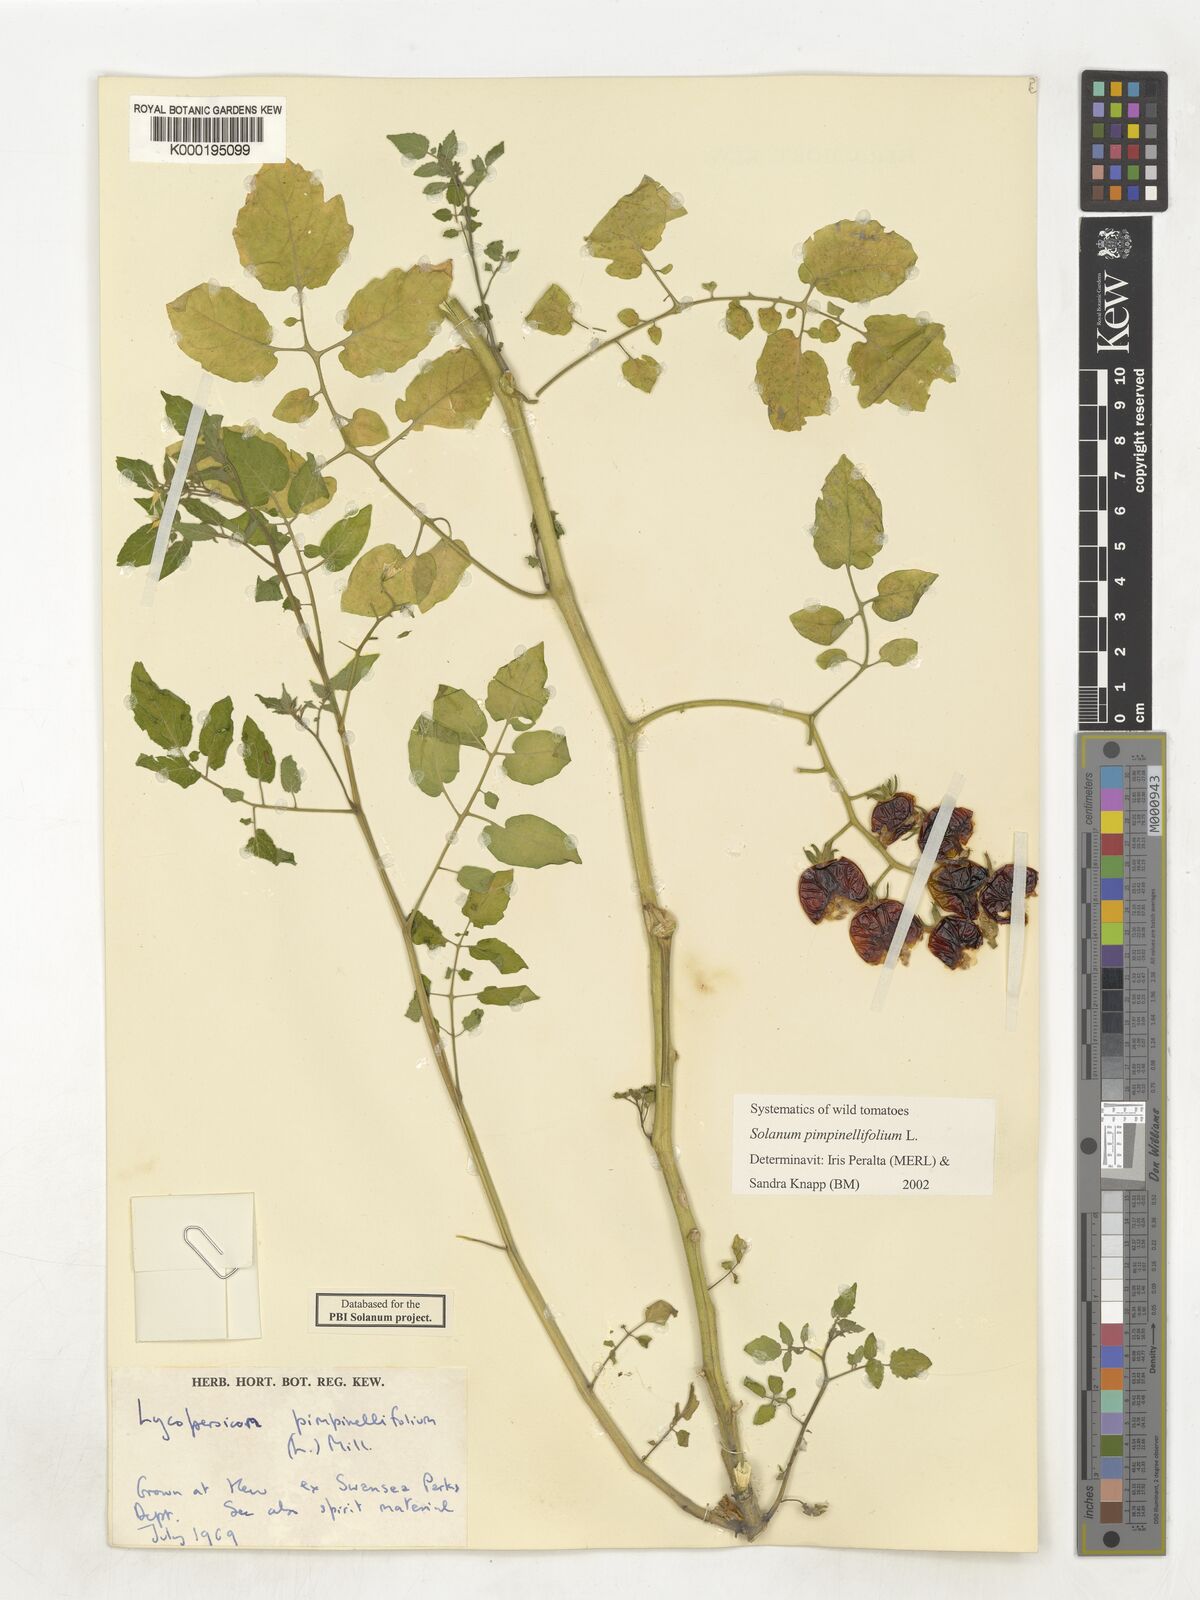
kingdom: Plantae
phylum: Tracheophyta
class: Magnoliopsida
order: Solanales
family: Solanaceae
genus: Solanum
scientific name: Solanum pimpinellifolium
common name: Currant-tomato
